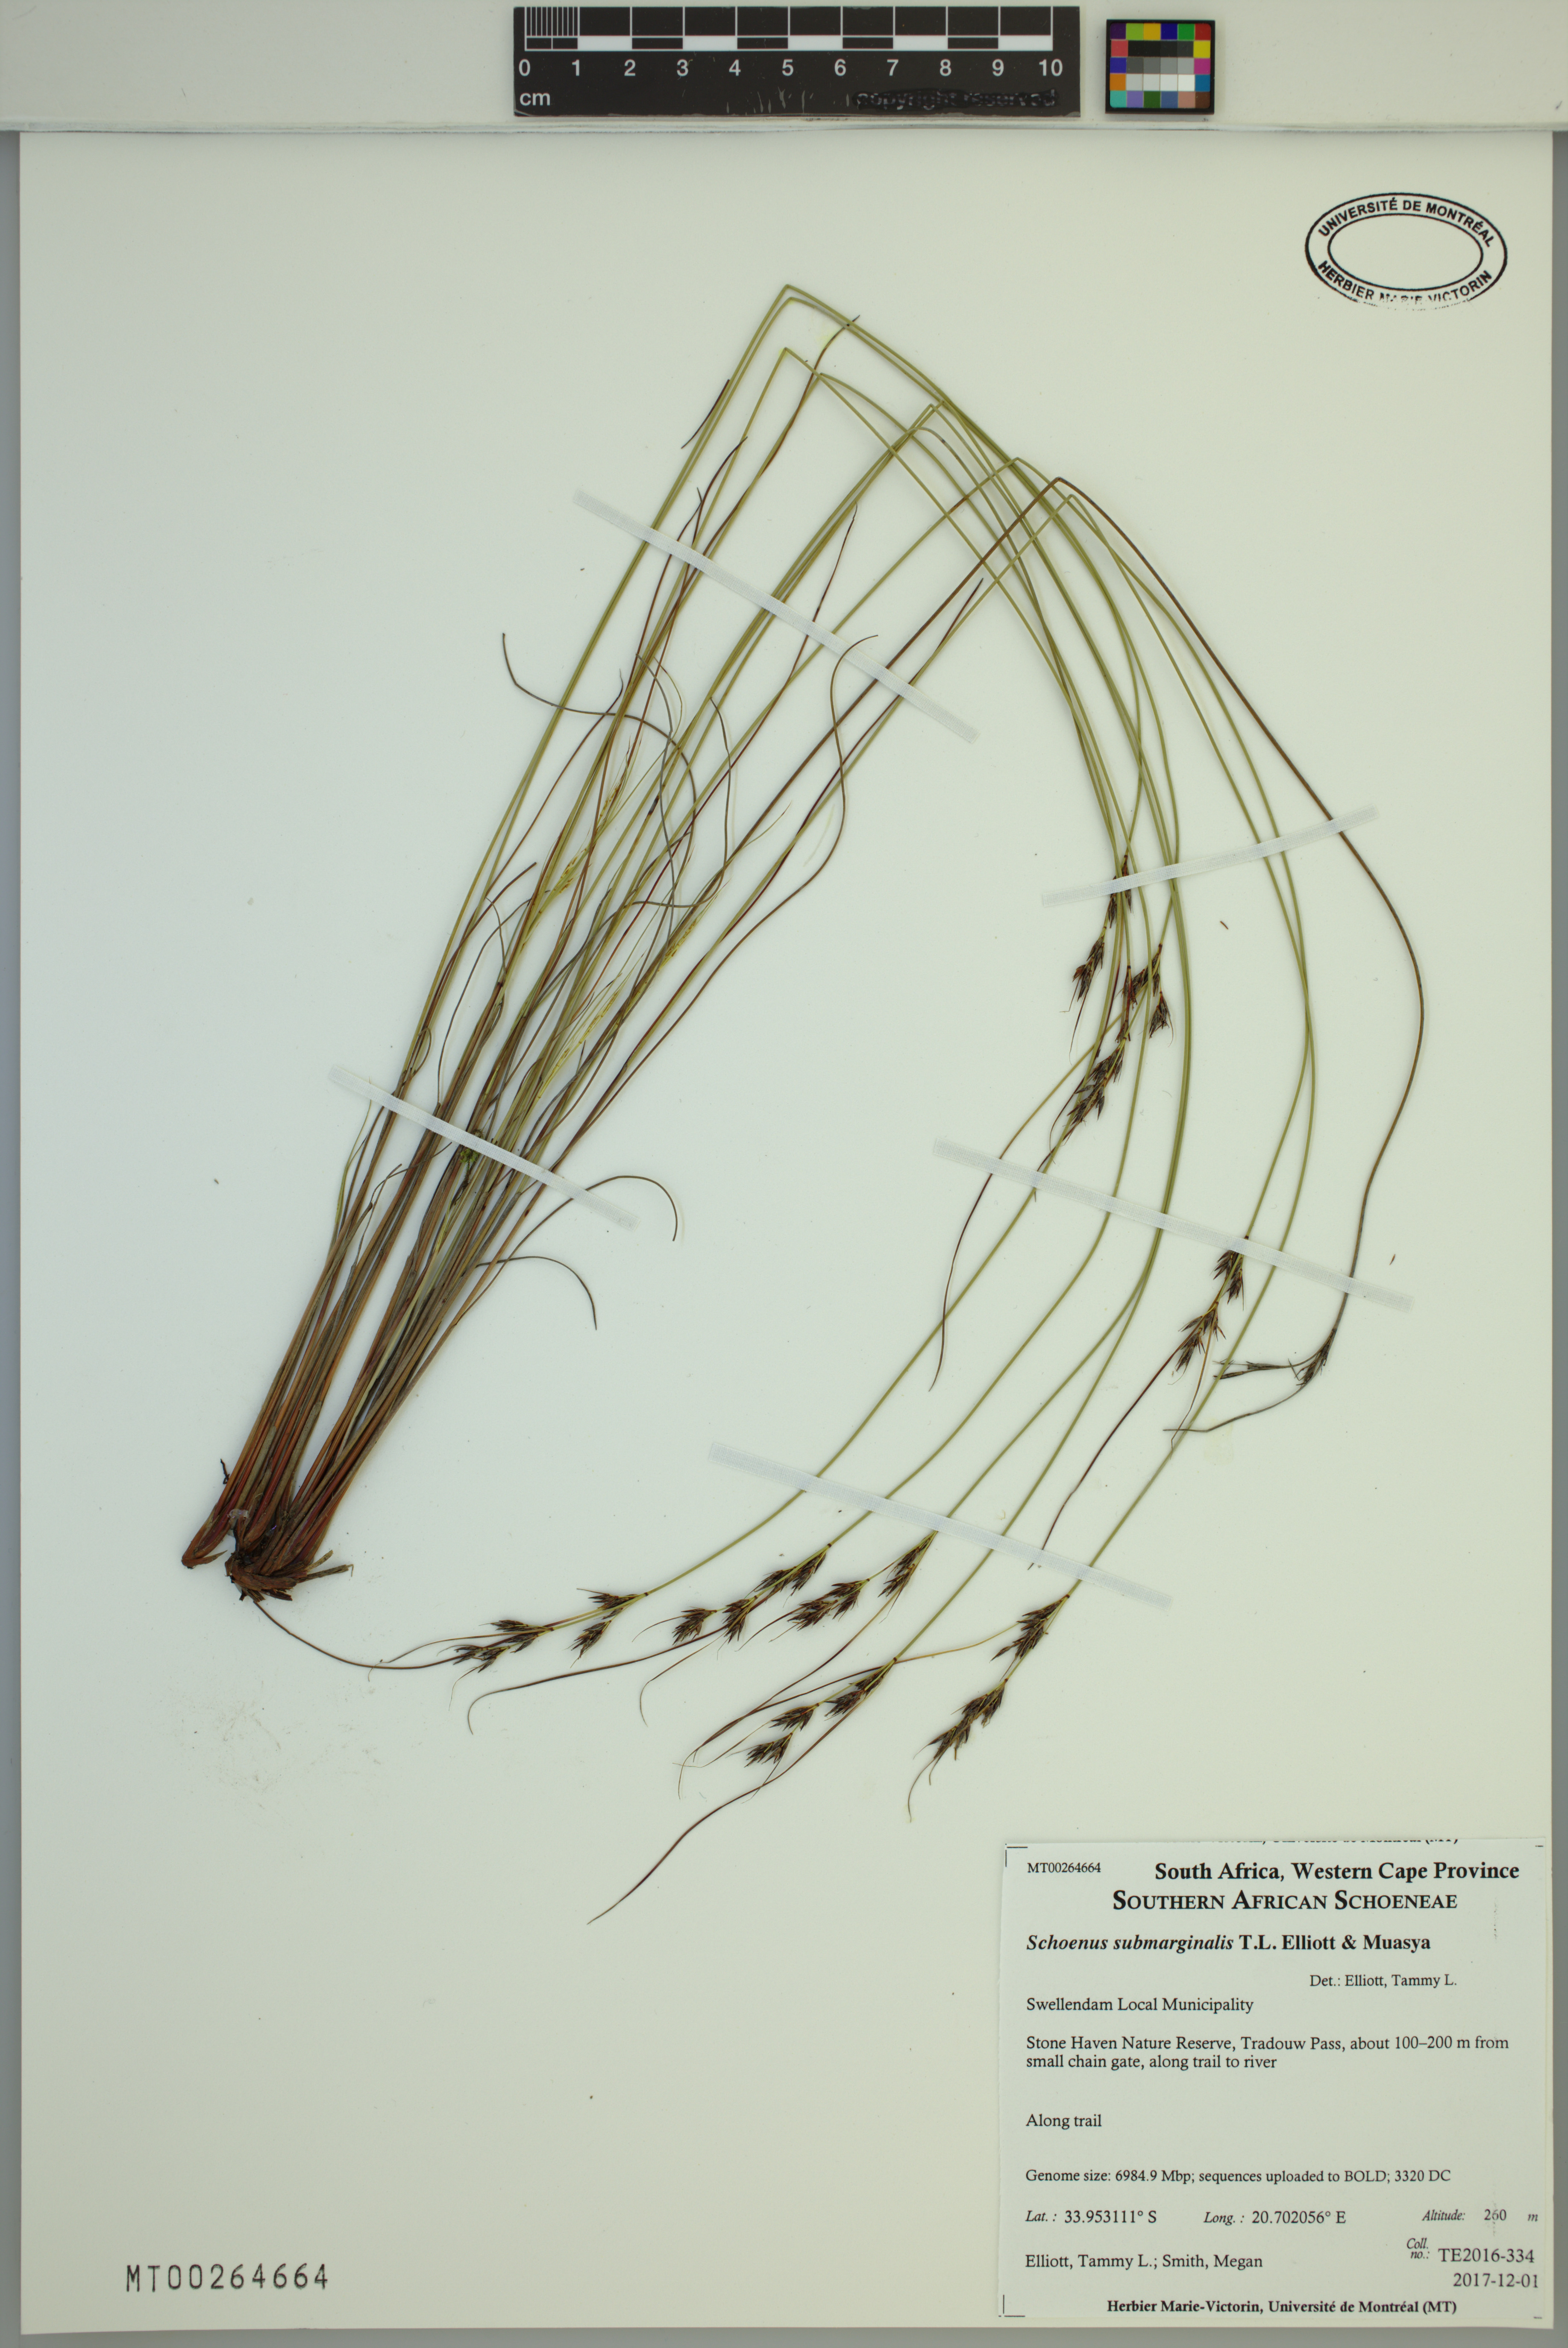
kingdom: Plantae
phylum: Tracheophyta
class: Liliopsida
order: Poales
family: Cyperaceae
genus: Schoenus
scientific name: Schoenus submarginalis
